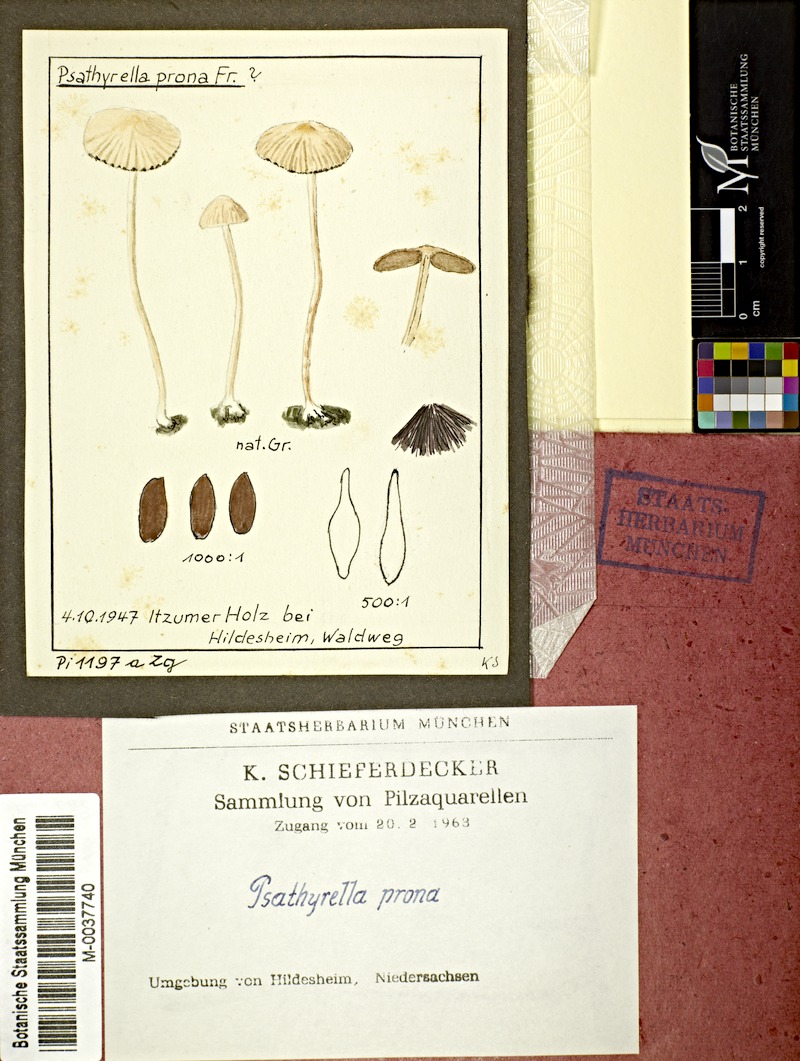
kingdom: Fungi
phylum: Basidiomycota
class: Agaricomycetes
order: Agaricales
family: Psathyrellaceae
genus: Psathyrella
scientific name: Psathyrella prona
